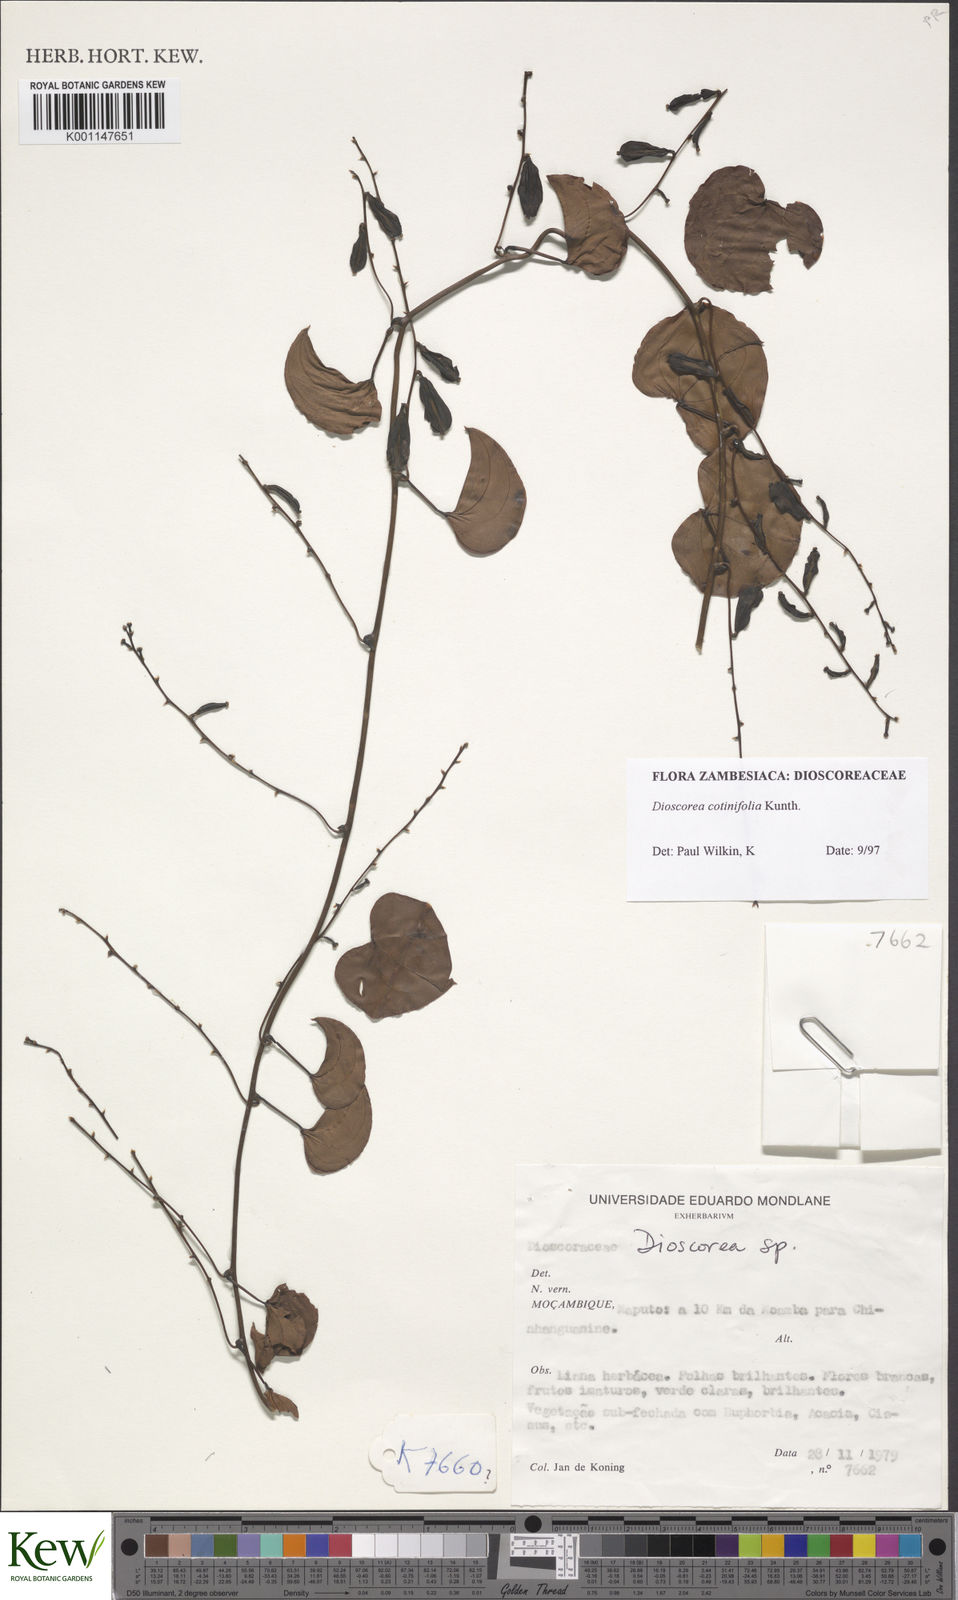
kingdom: Plantae
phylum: Tracheophyta
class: Liliopsida
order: Dioscoreales
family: Dioscoreaceae
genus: Dioscorea
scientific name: Dioscorea cotinifolia
